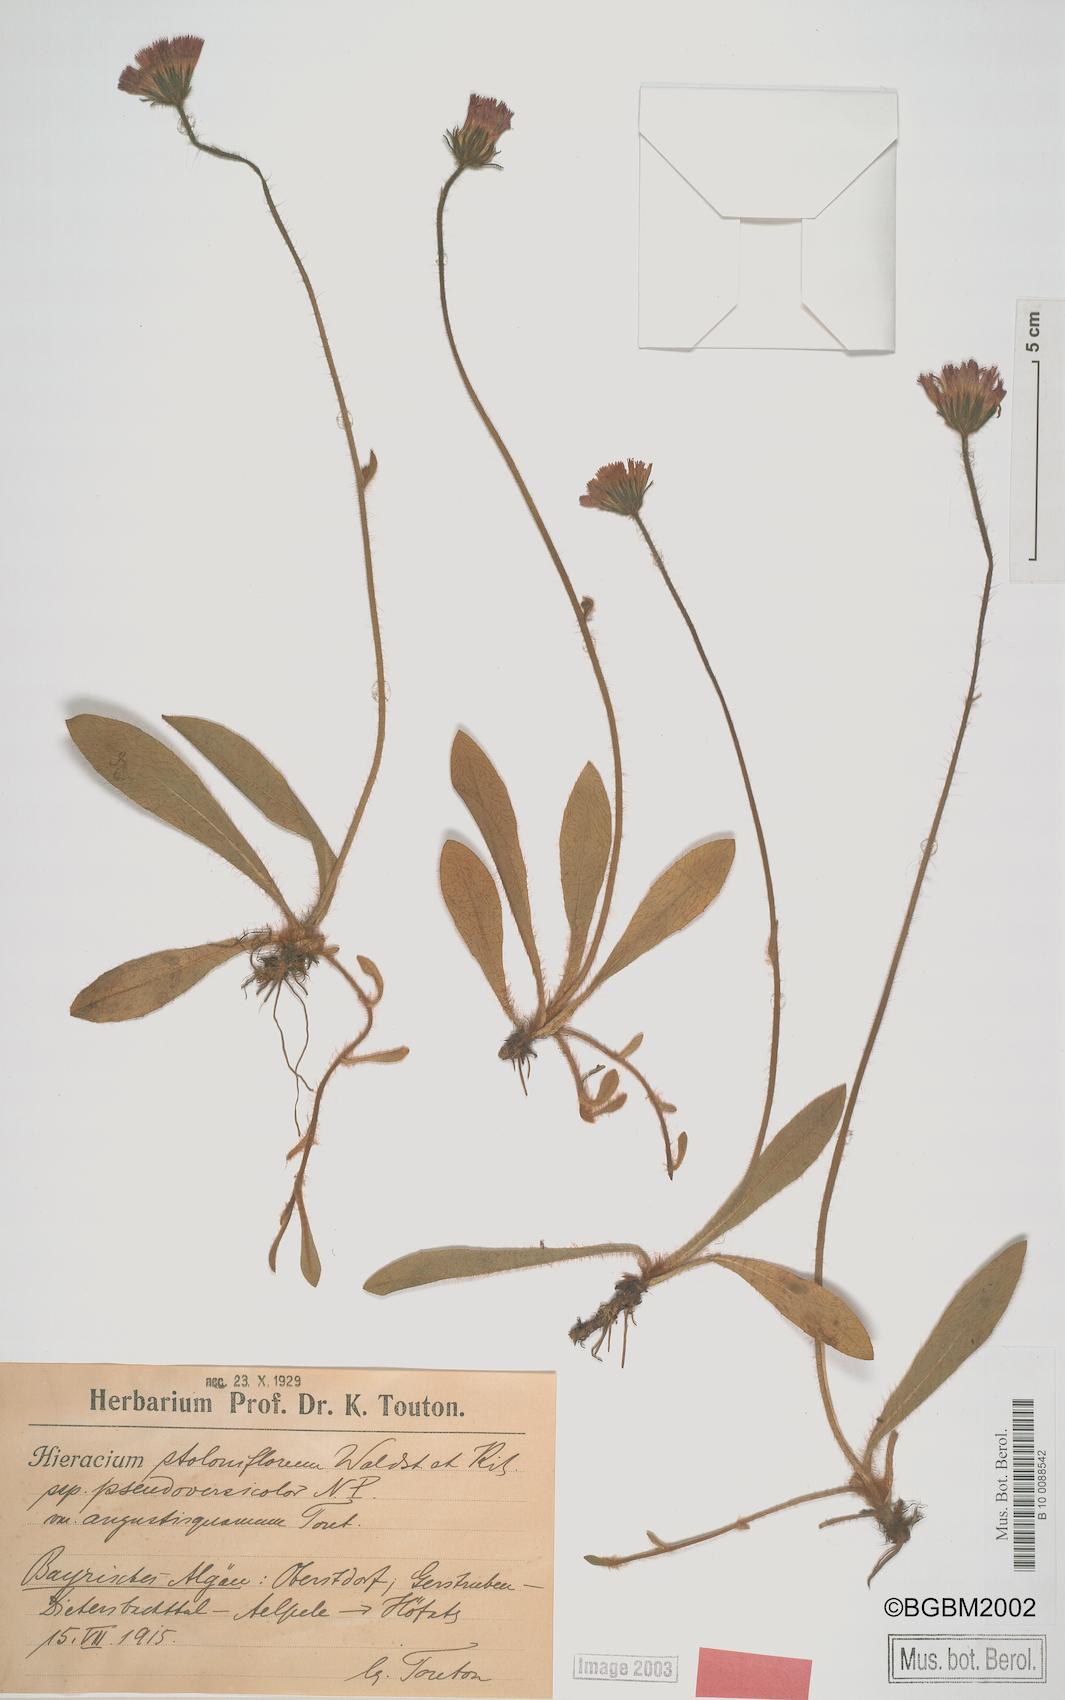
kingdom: Plantae
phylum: Tracheophyta
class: Magnoliopsida
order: Asterales
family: Asteraceae
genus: Hieracium
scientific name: Hieracium stoloniflorum
